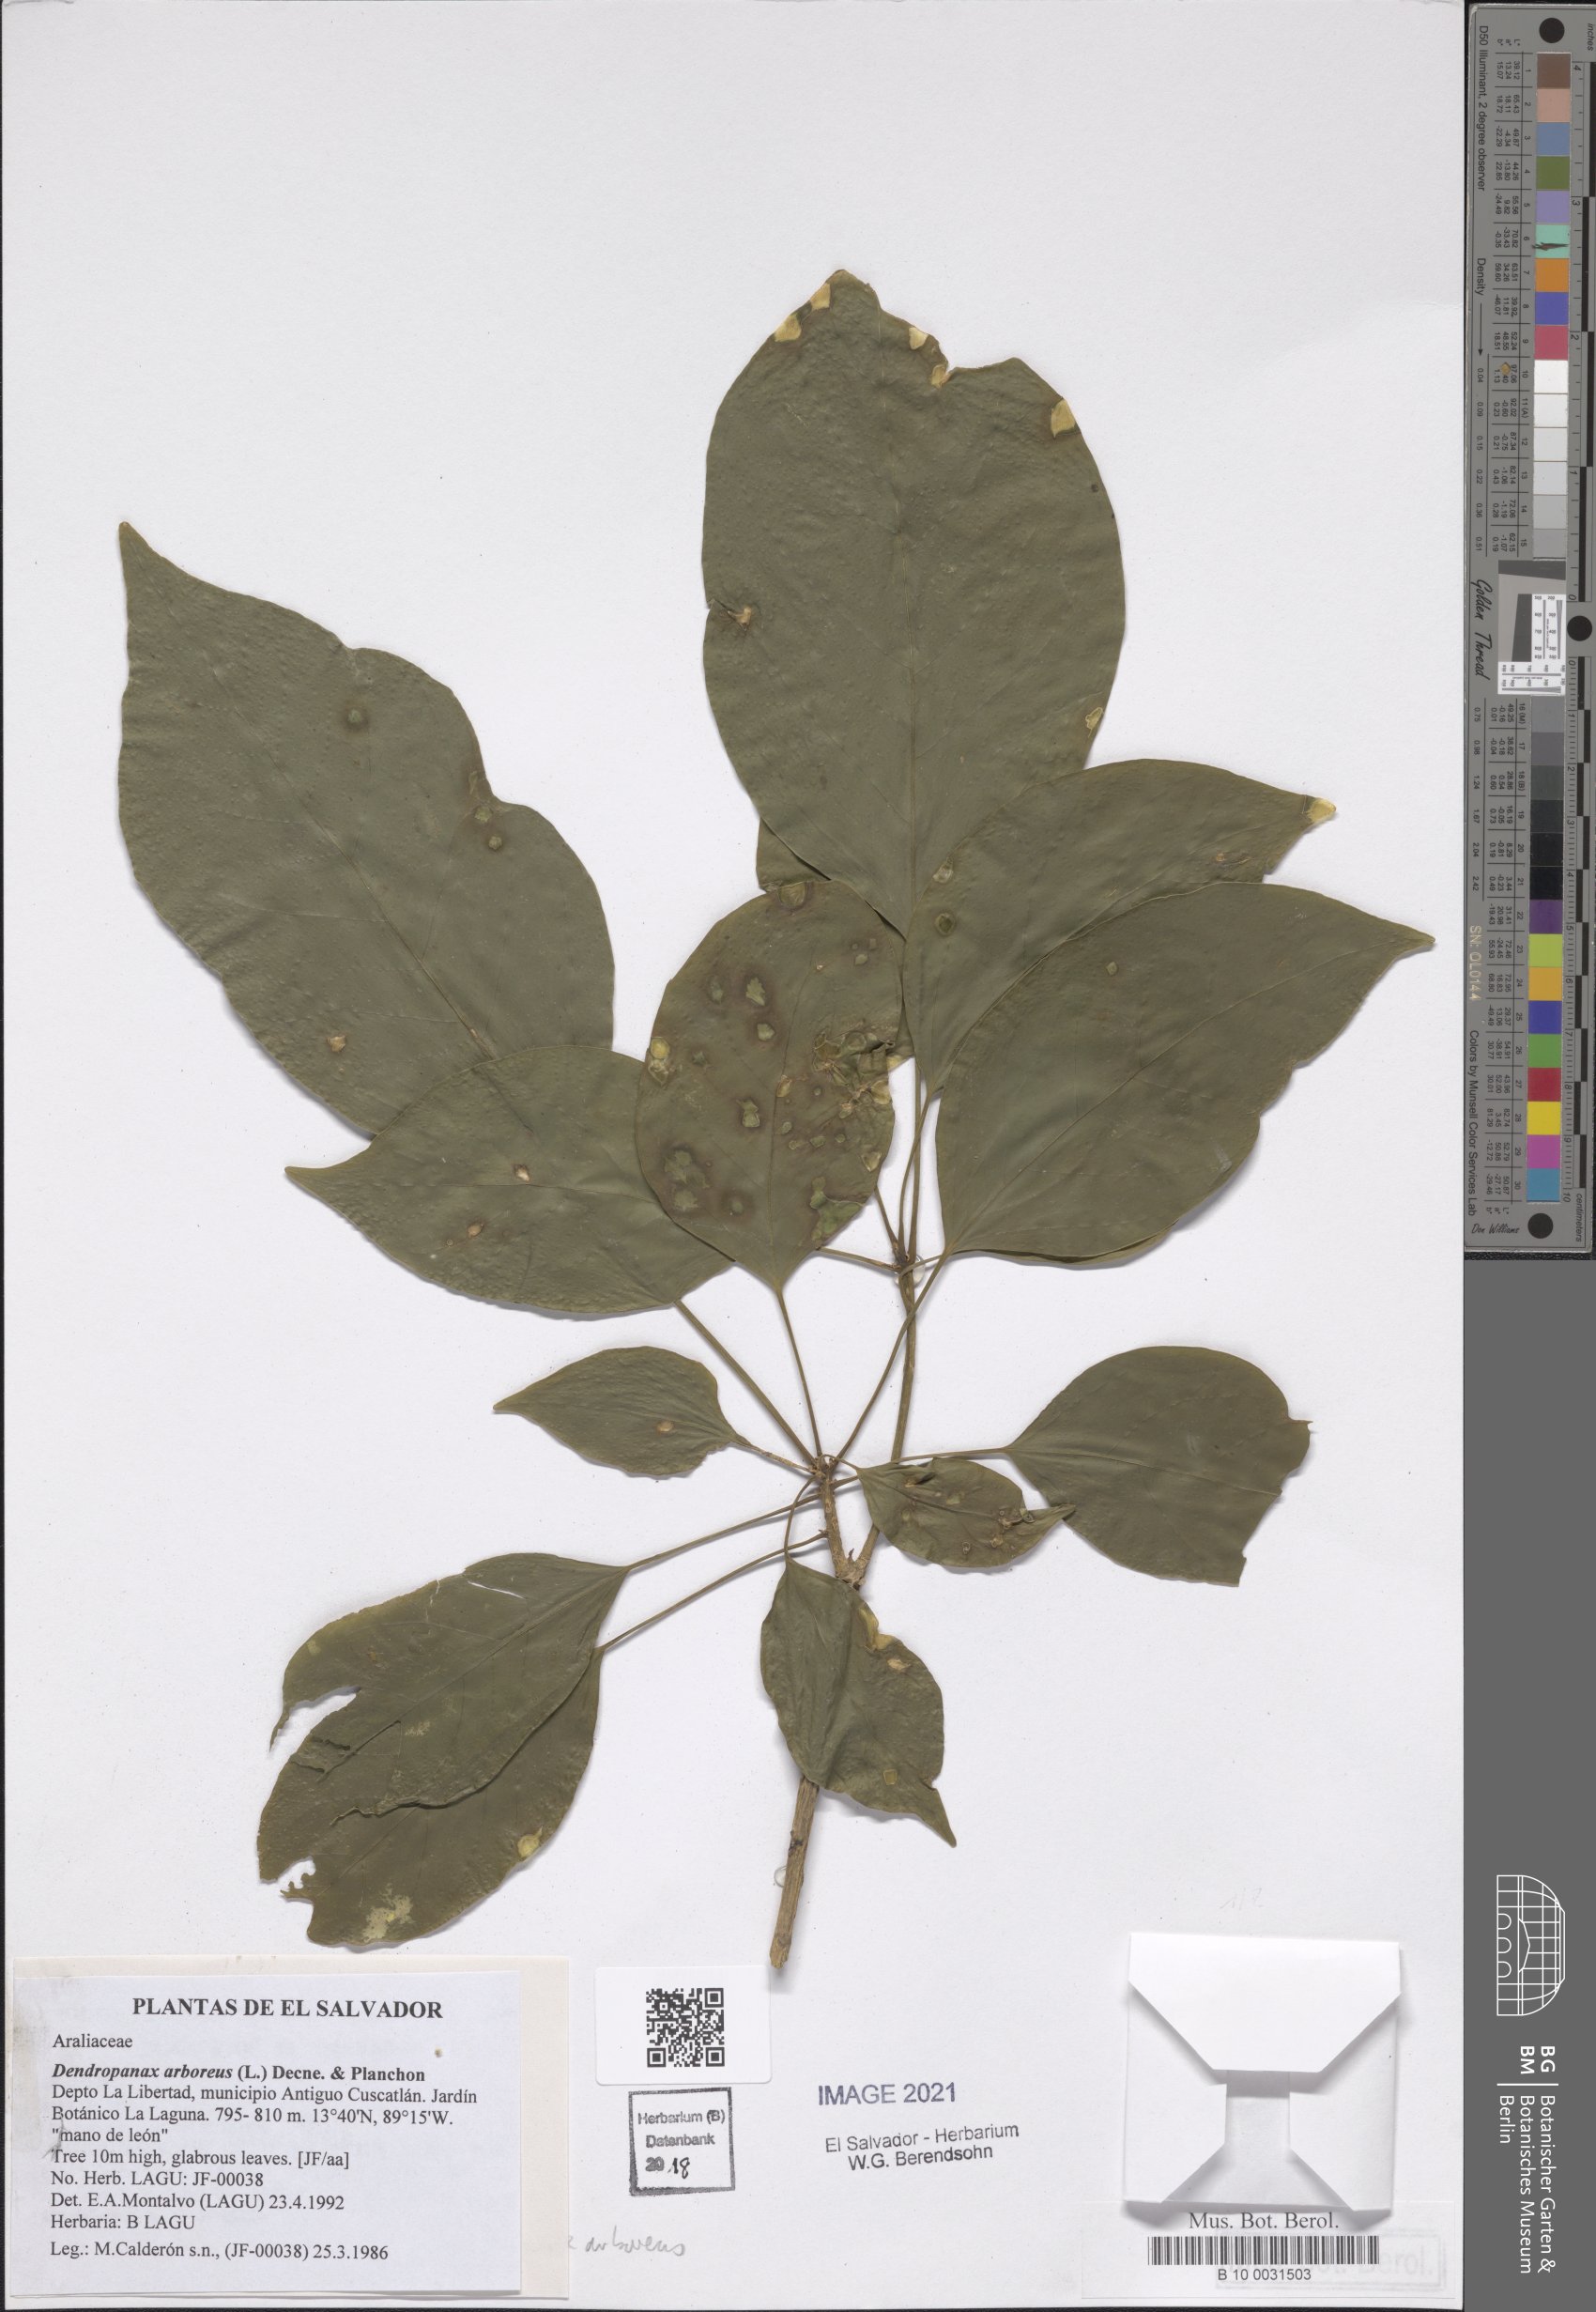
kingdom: Plantae
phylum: Tracheophyta
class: Magnoliopsida
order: Apiales
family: Araliaceae
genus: Dendropanax
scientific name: Dendropanax arboreus
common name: Potato-wood
